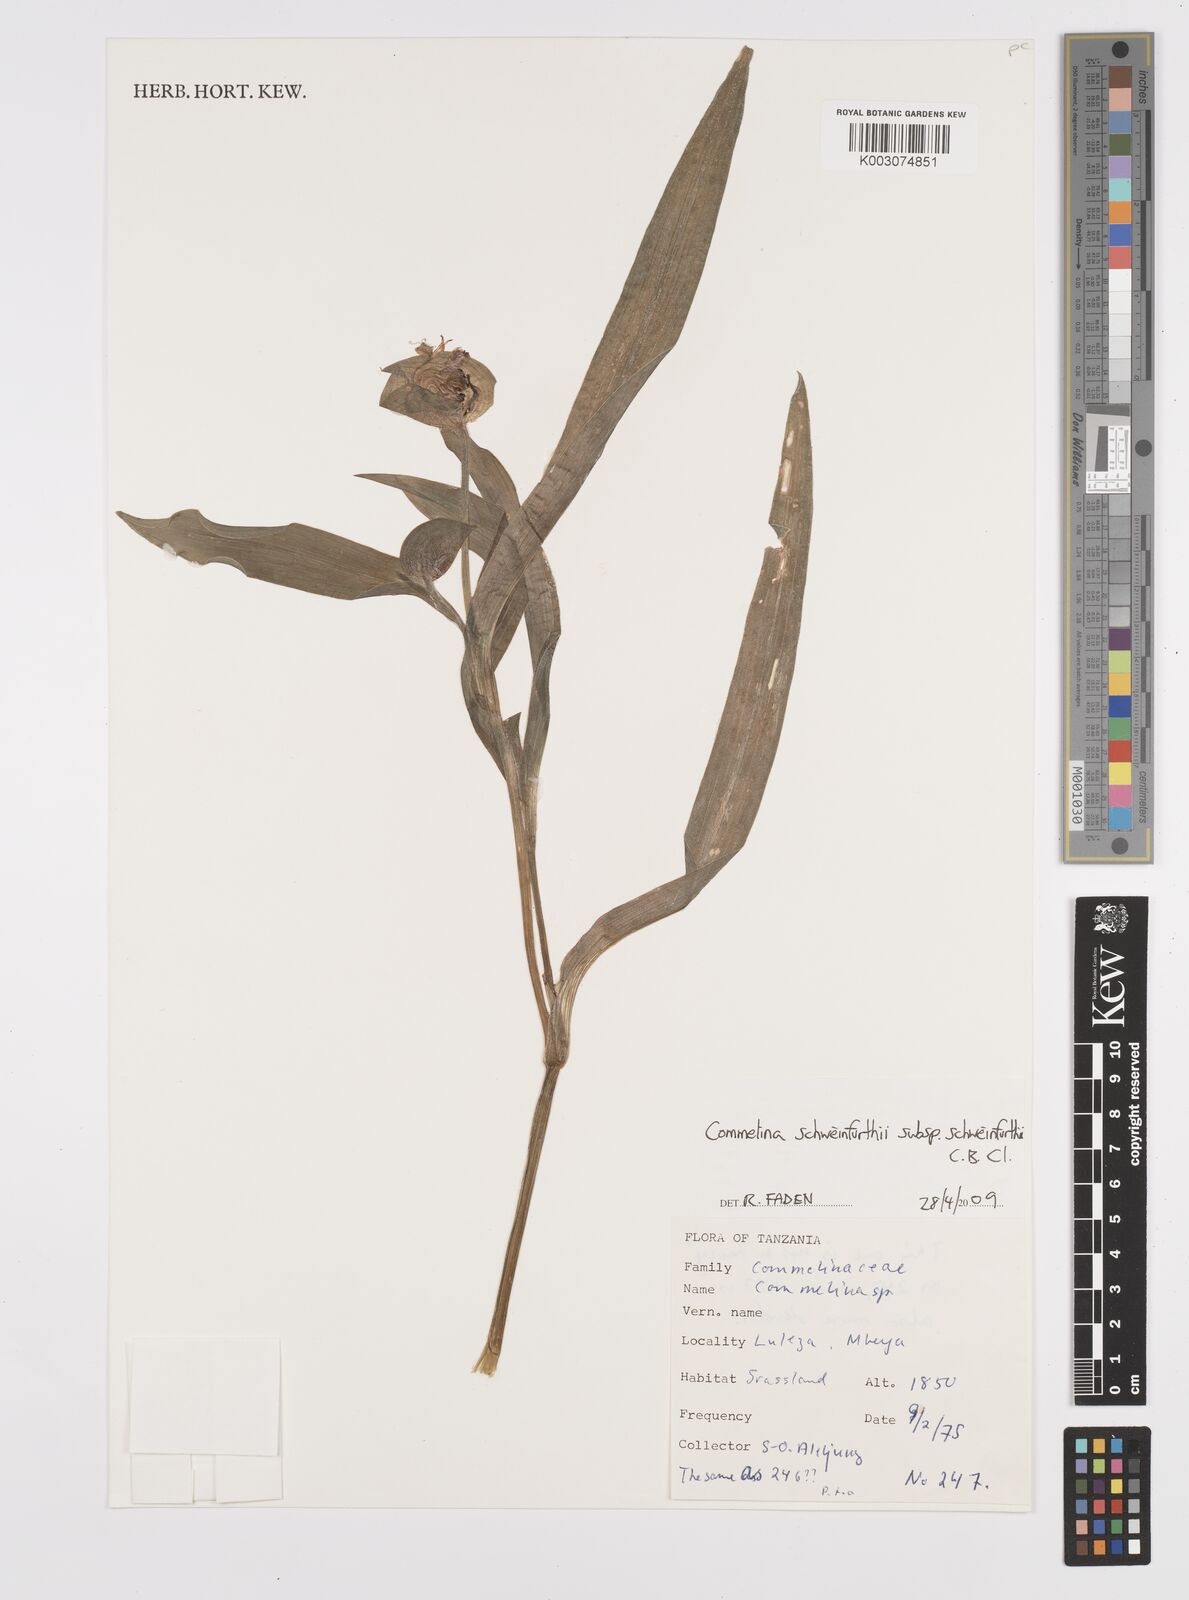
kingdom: Plantae
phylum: Tracheophyta
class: Liliopsida
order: Commelinales
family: Commelinaceae
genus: Commelina
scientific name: Commelina schweinfurthii
